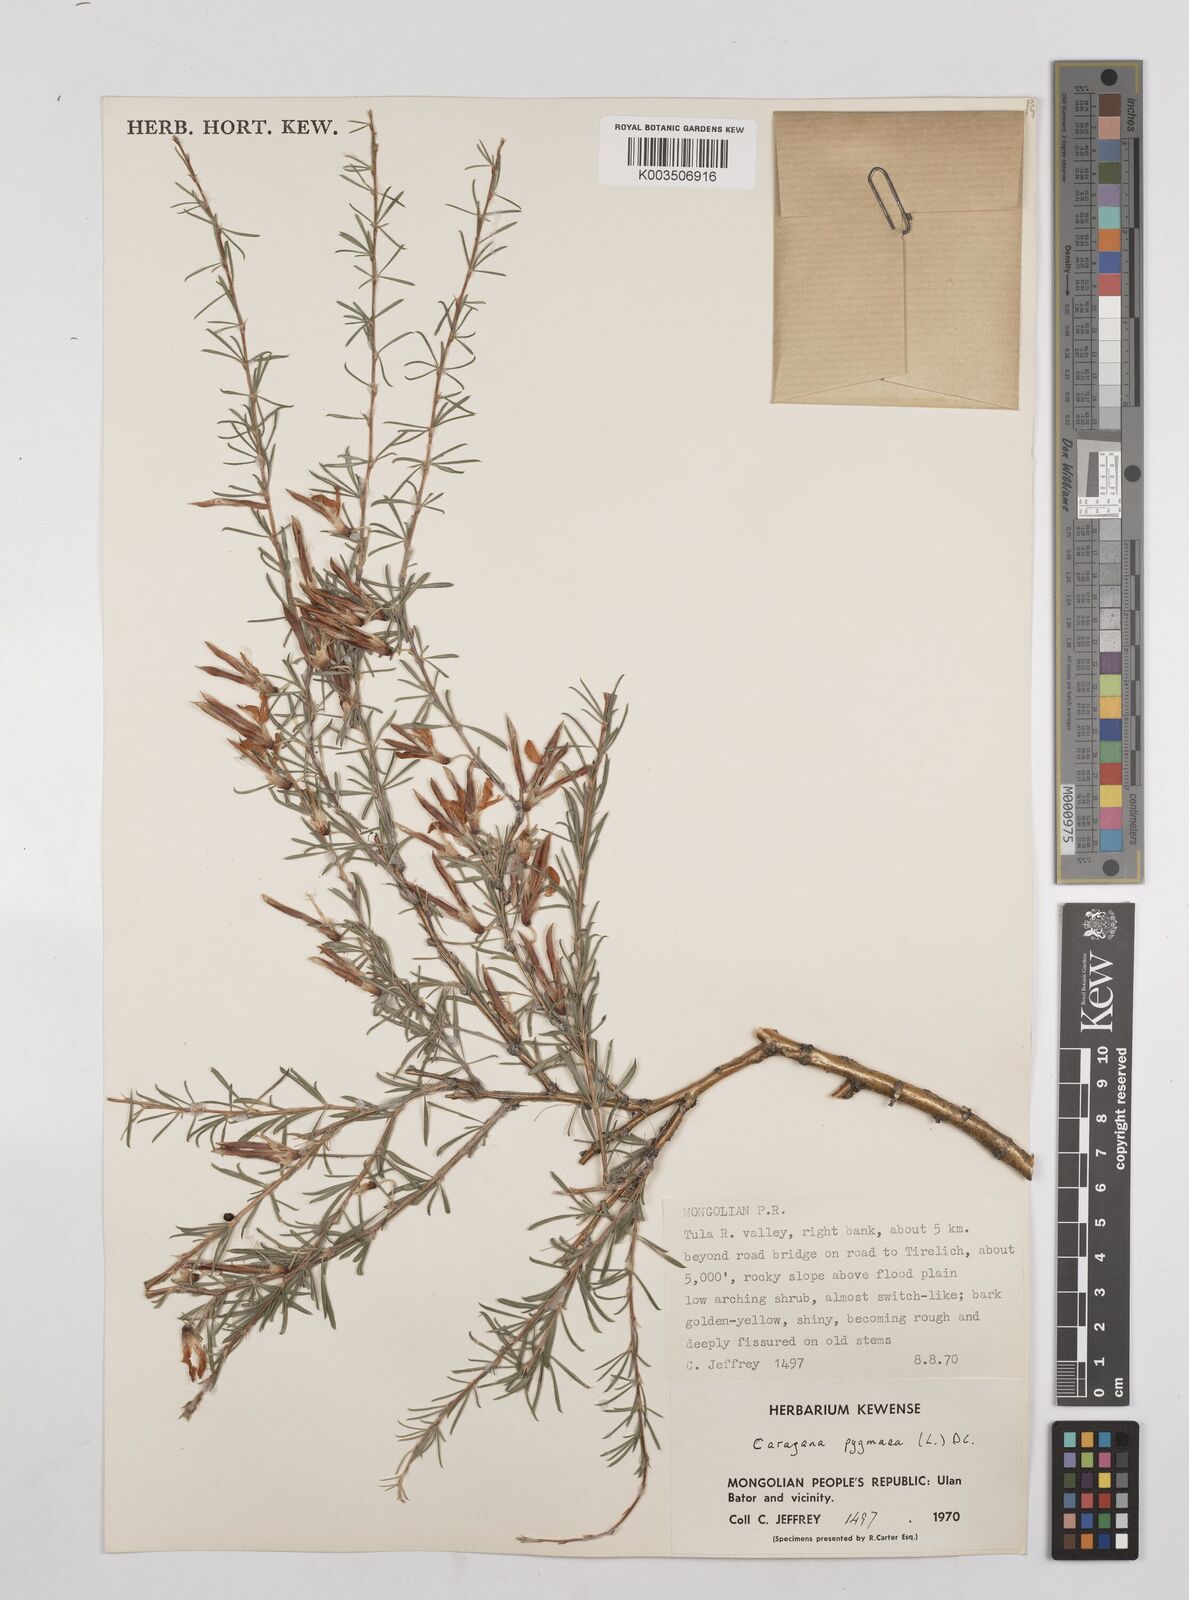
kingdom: Plantae
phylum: Tracheophyta
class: Magnoliopsida
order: Fabales
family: Fabaceae
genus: Caragana
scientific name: Caragana pygmaea
